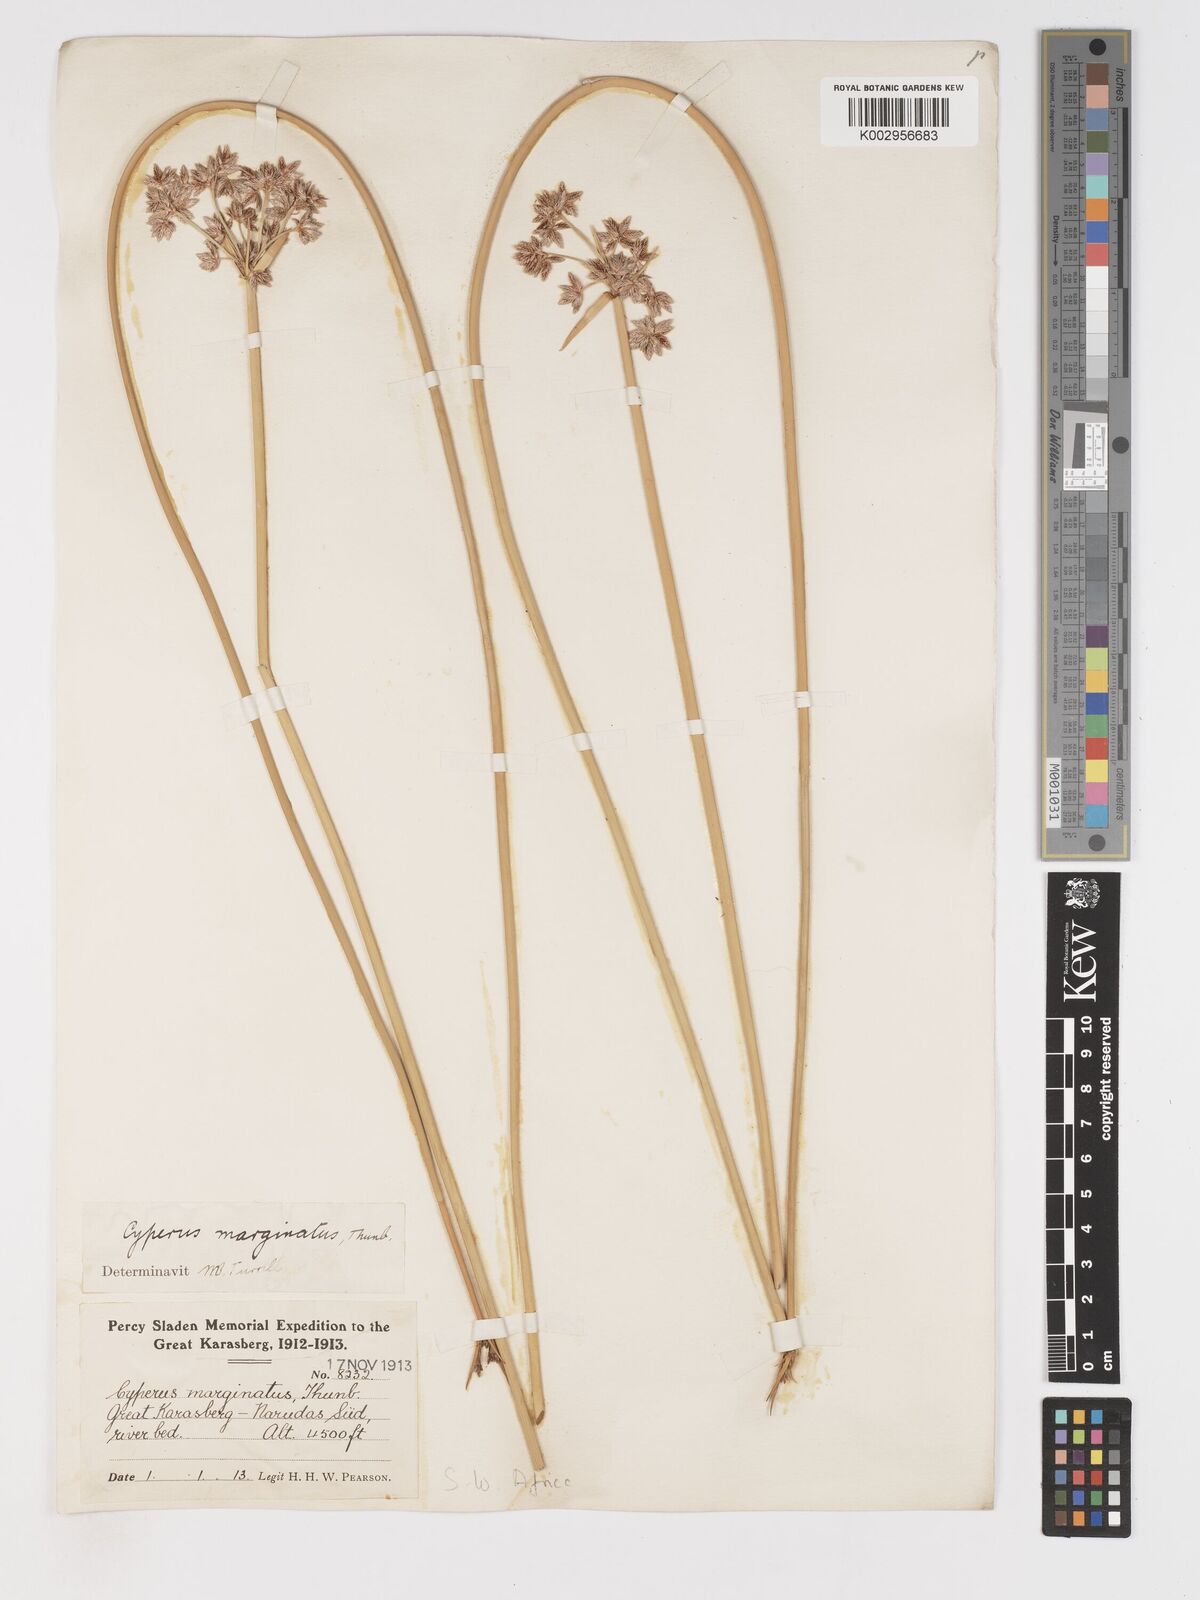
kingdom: Plantae
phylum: Tracheophyta
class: Liliopsida
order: Poales
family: Cyperaceae
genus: Cyperus
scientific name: Cyperus marginatus
